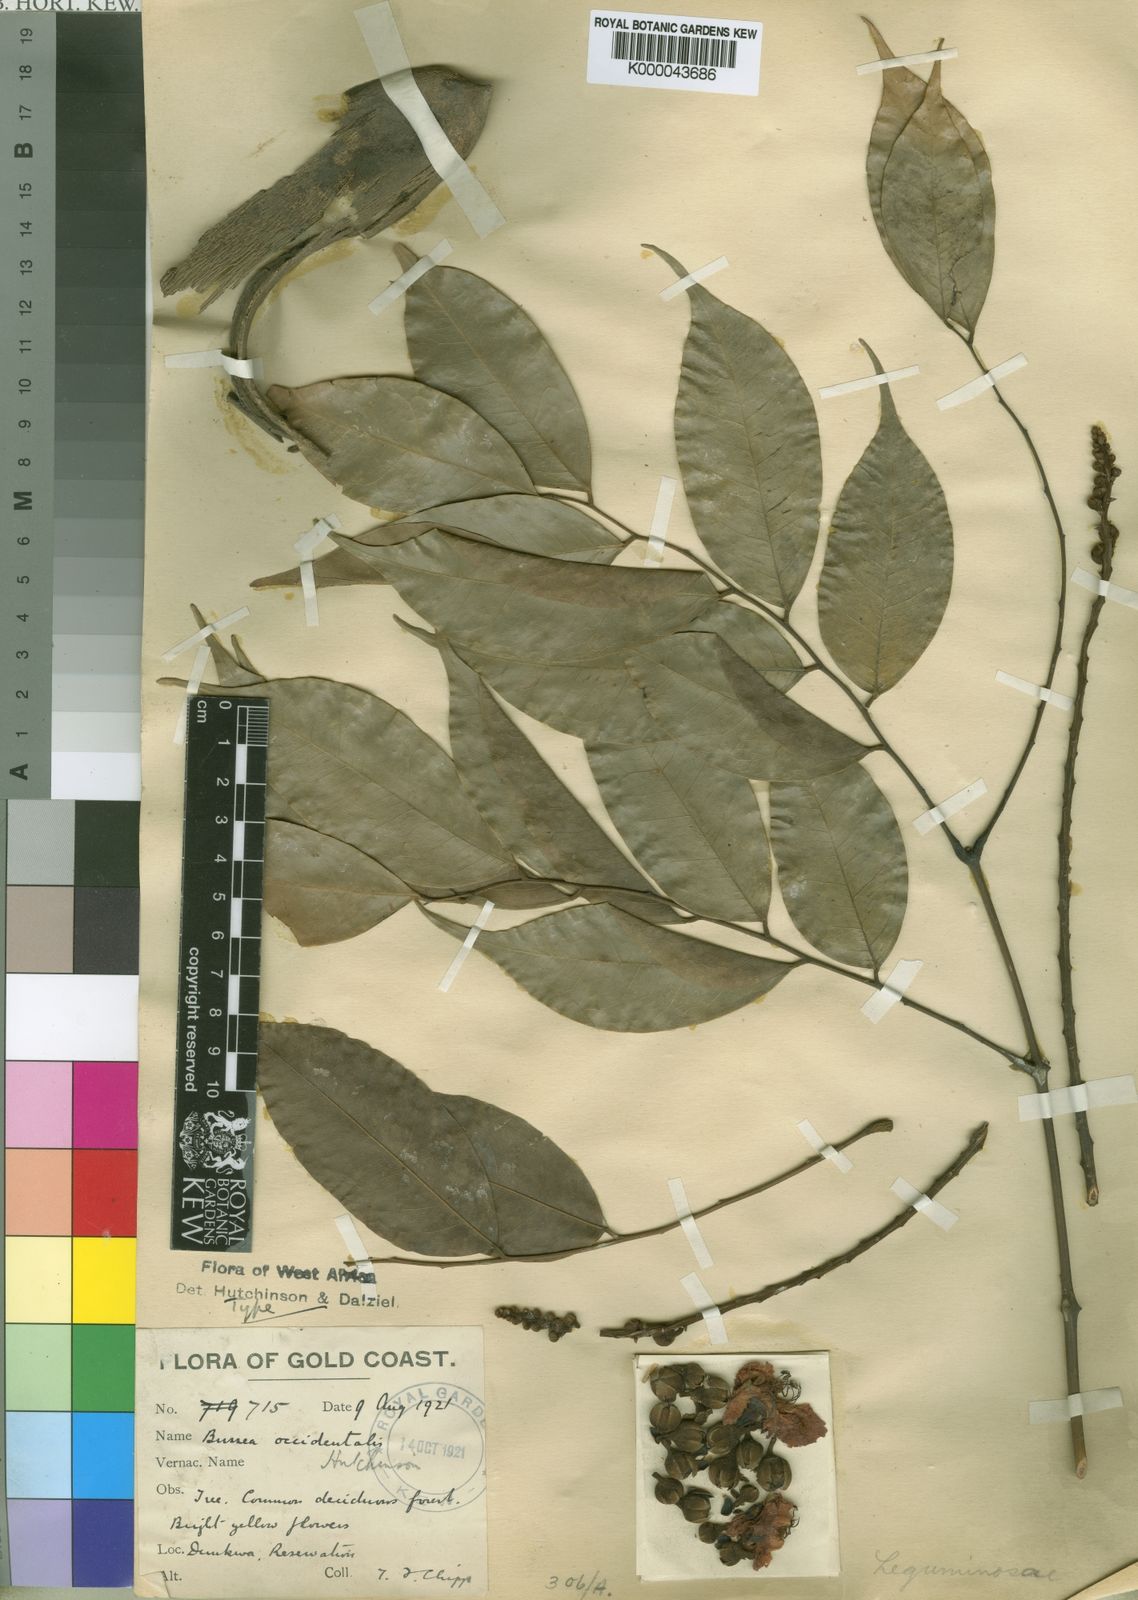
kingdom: Plantae
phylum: Tracheophyta
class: Magnoliopsida
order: Fabales
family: Fabaceae
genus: Bussea
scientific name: Bussea occidentalis
